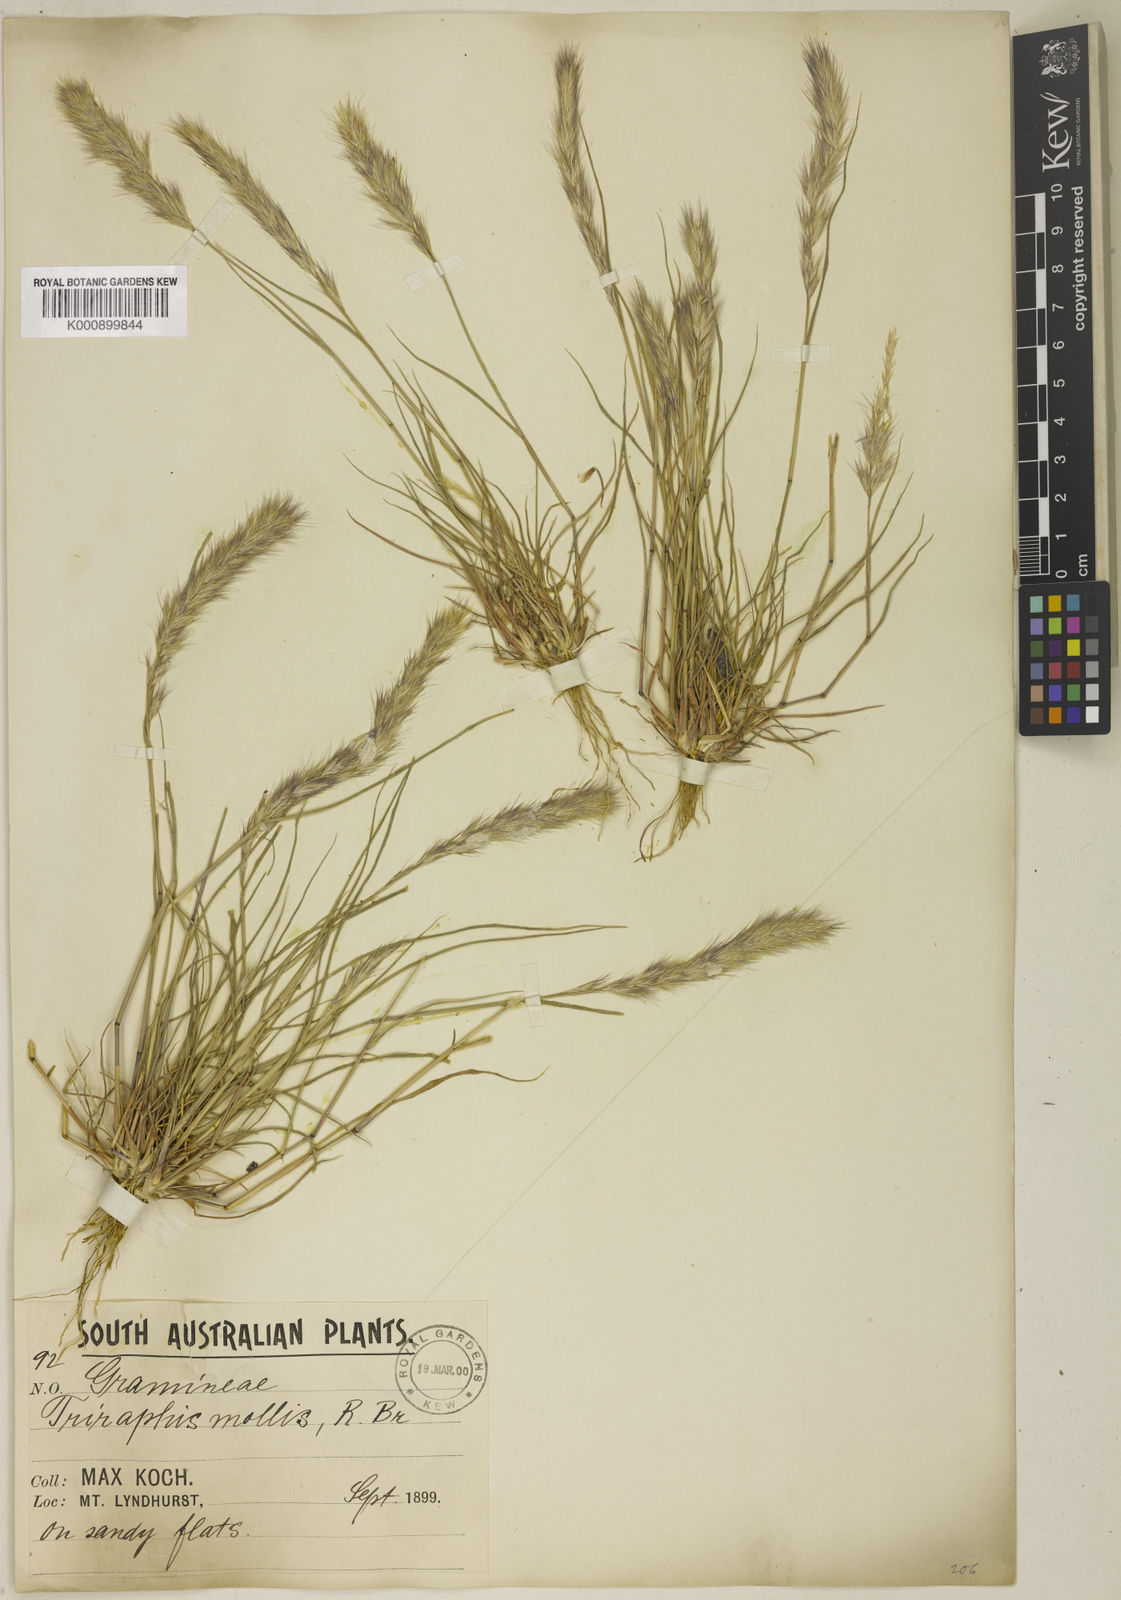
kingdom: Plantae
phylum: Tracheophyta
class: Liliopsida
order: Poales
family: Poaceae
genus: Triraphis
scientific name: Triraphis mollis
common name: Purple needlegrass
